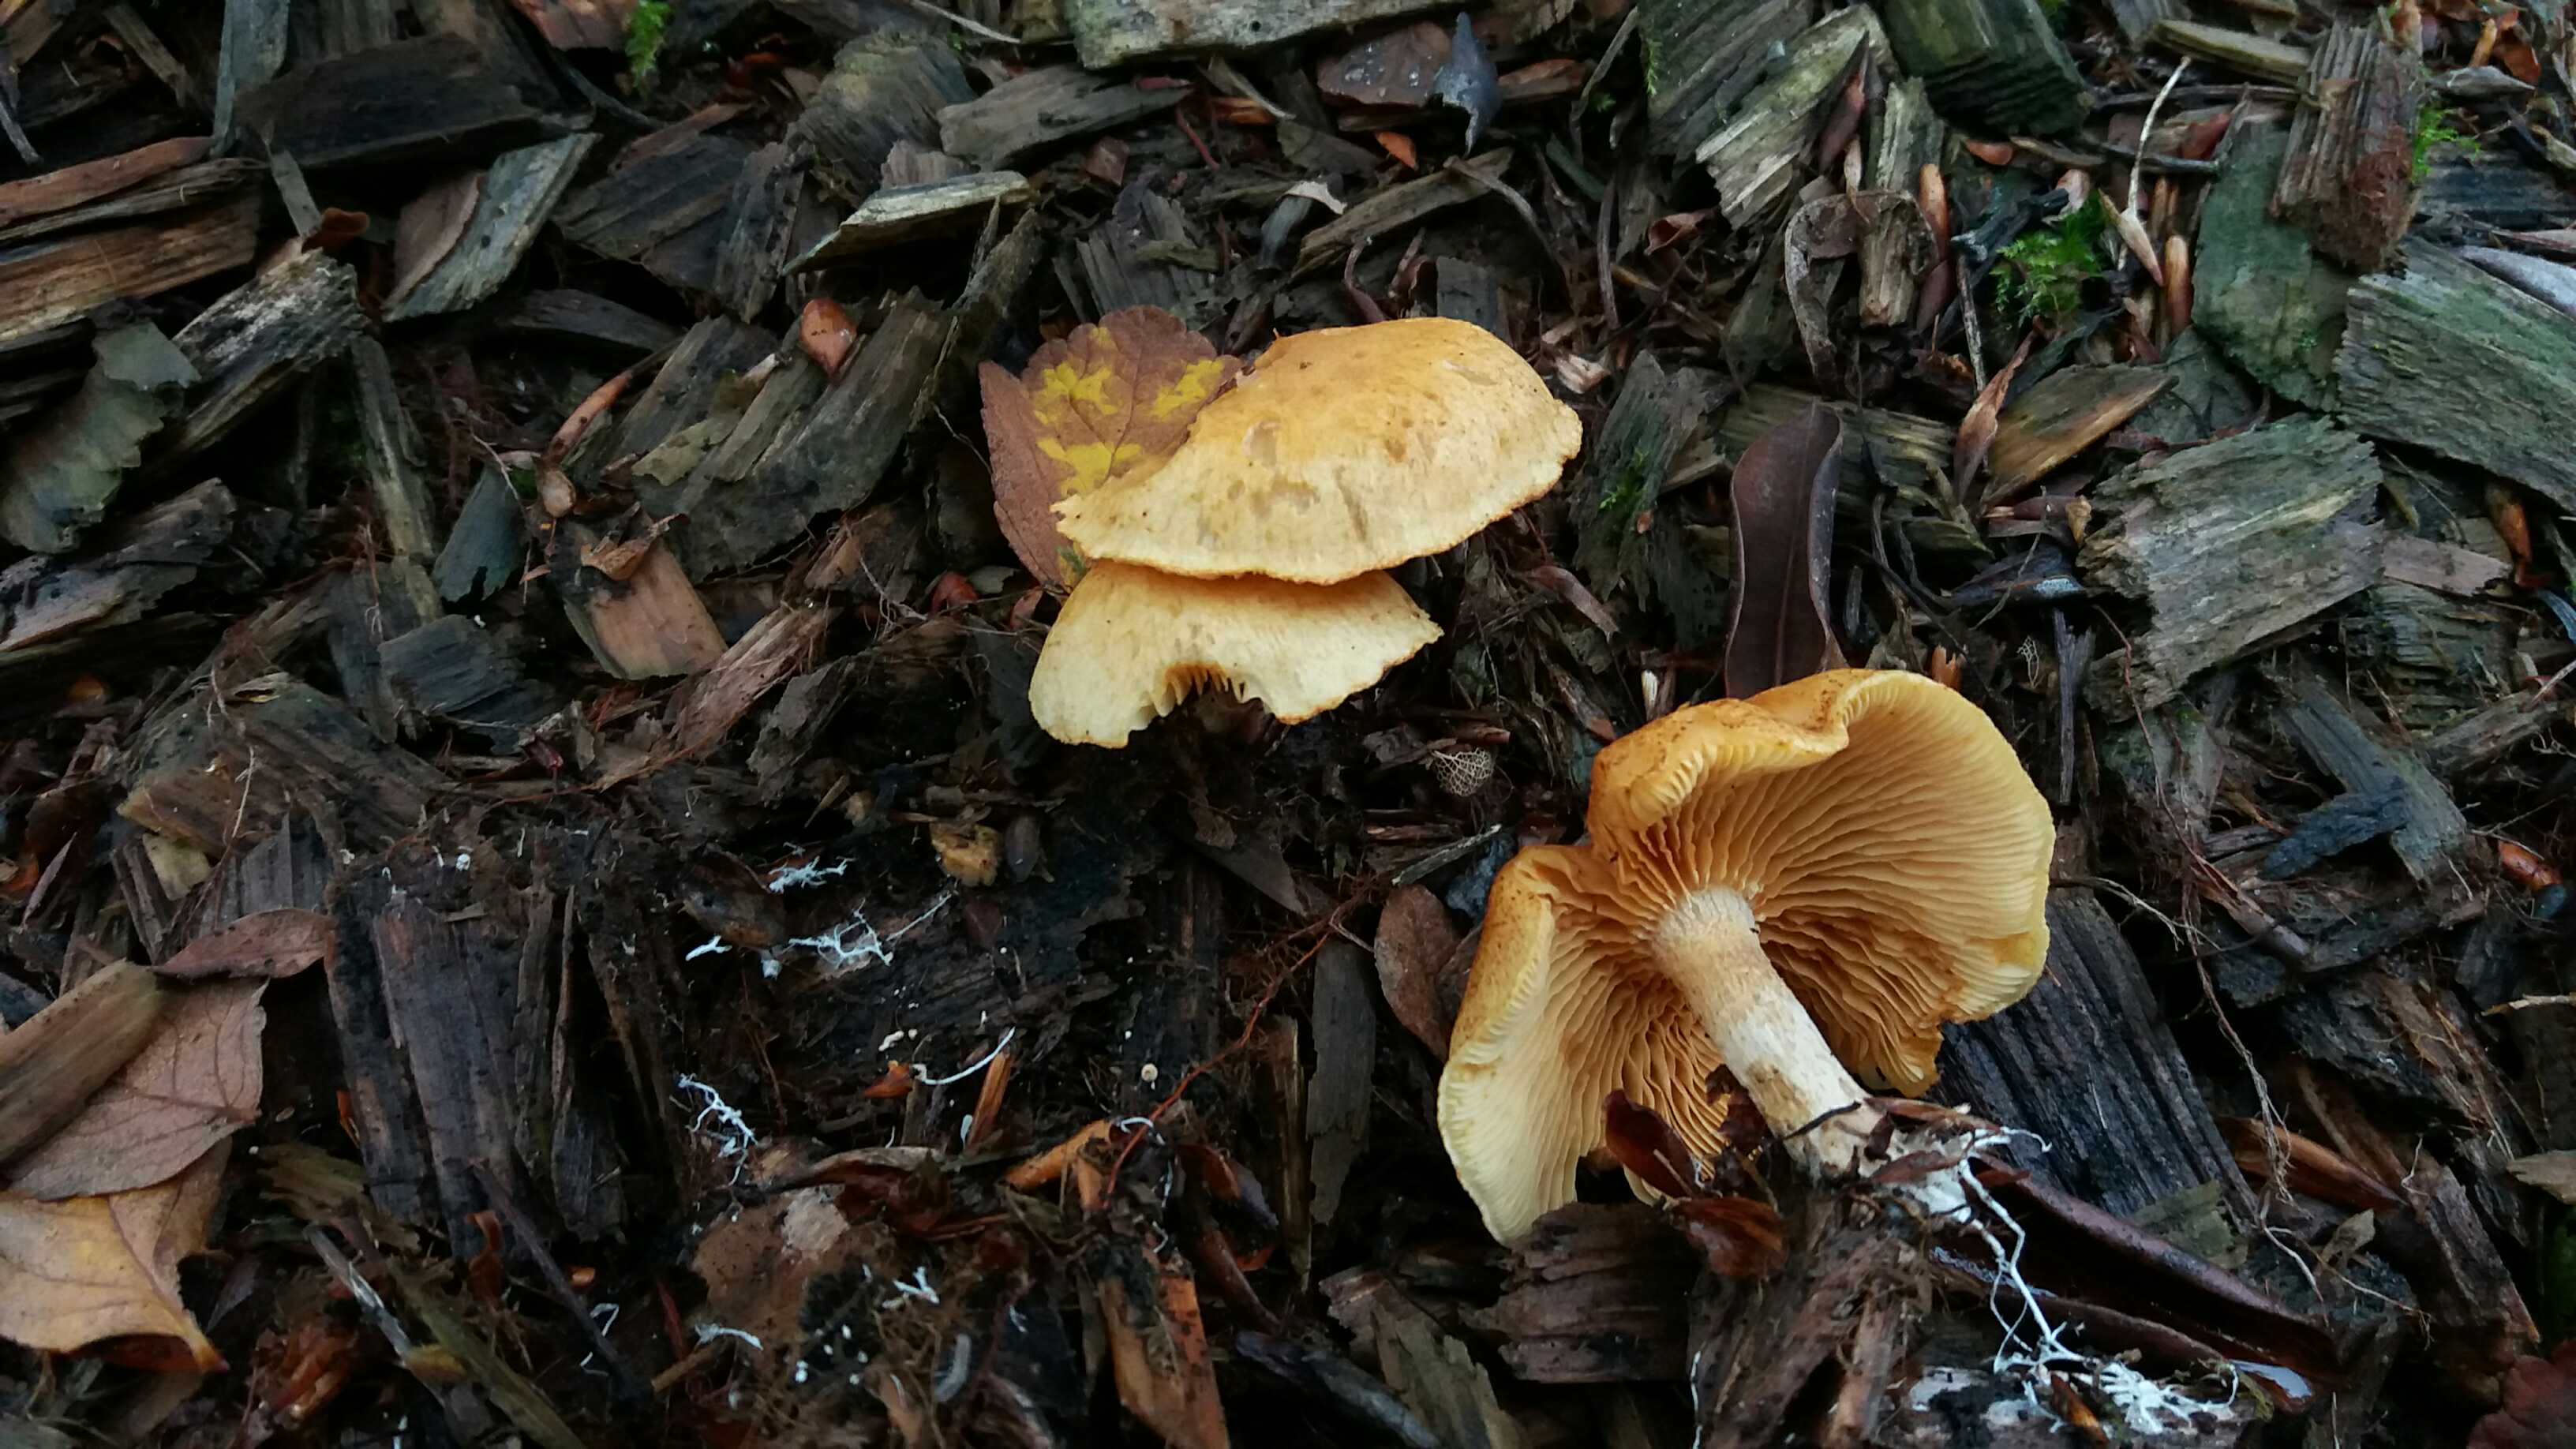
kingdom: Fungi
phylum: Basidiomycota
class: Agaricomycetes
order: Agaricales
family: Hymenogastraceae
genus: Gymnopilus
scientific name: Gymnopilus penetrans
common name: plettet flammehat
